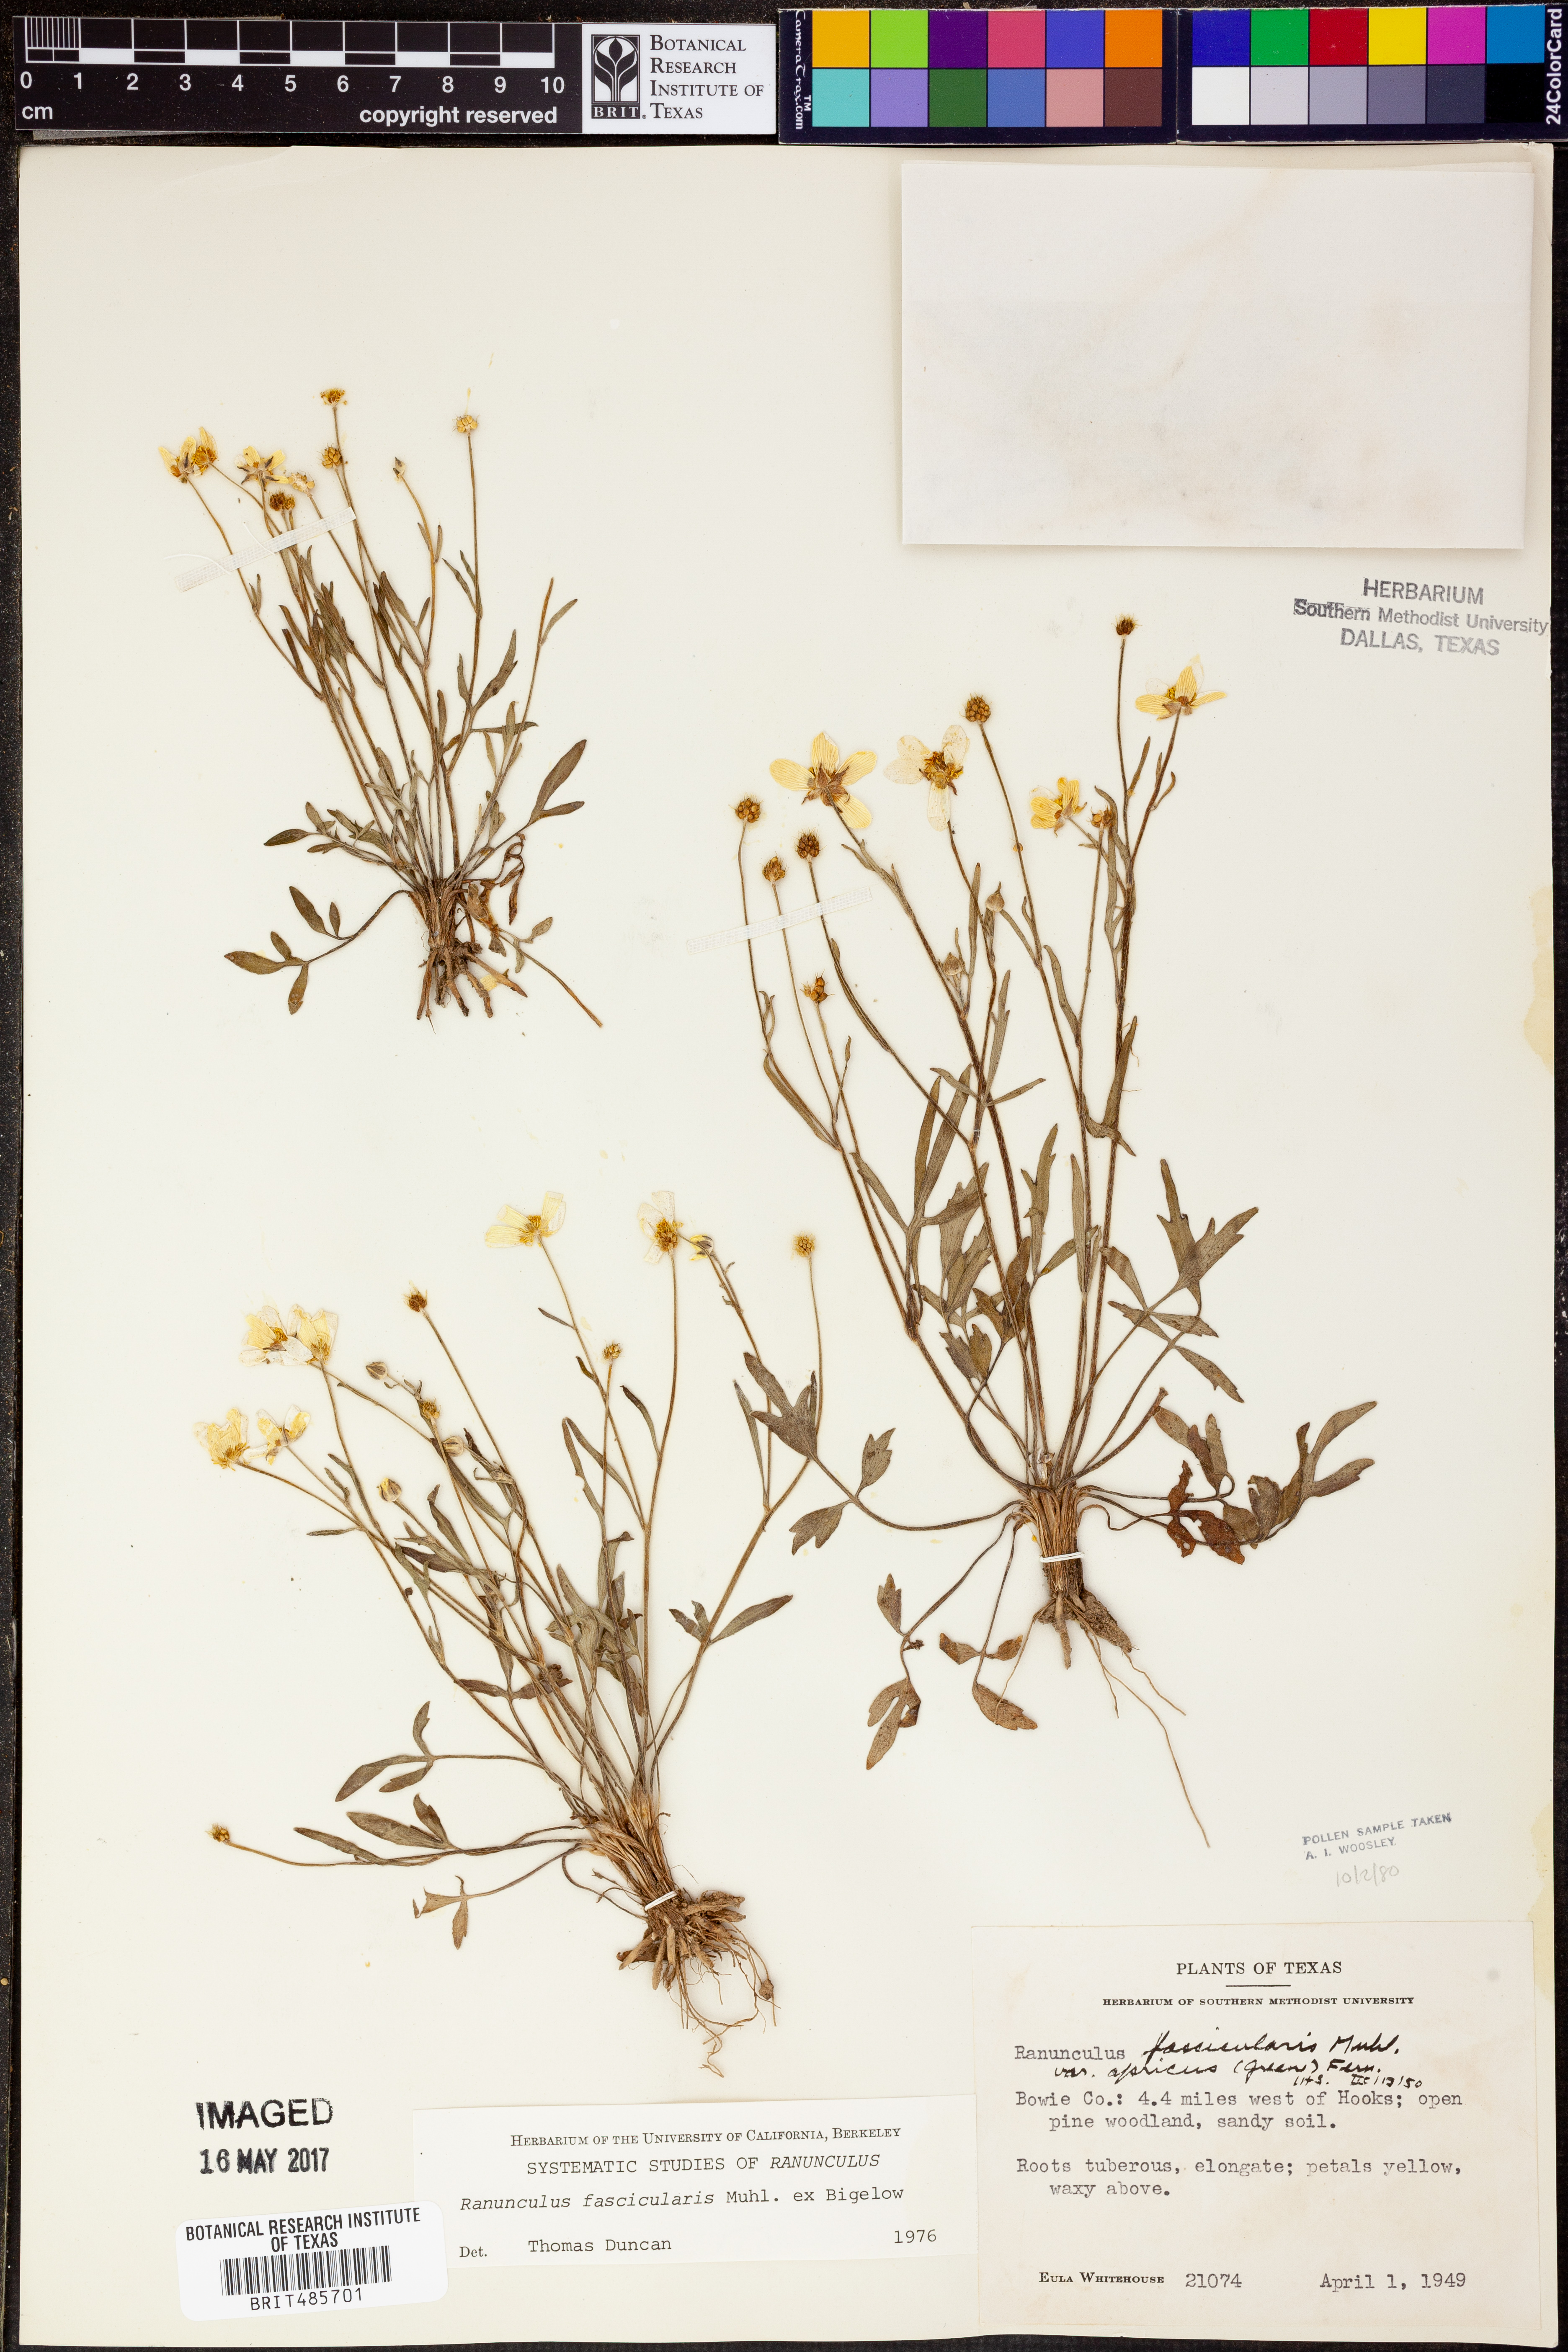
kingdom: Plantae
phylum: Tracheophyta
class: Magnoliopsida
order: Ranunculales
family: Ranunculaceae
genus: Ranunculus
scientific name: Ranunculus fascicularis
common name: Early buttercup
